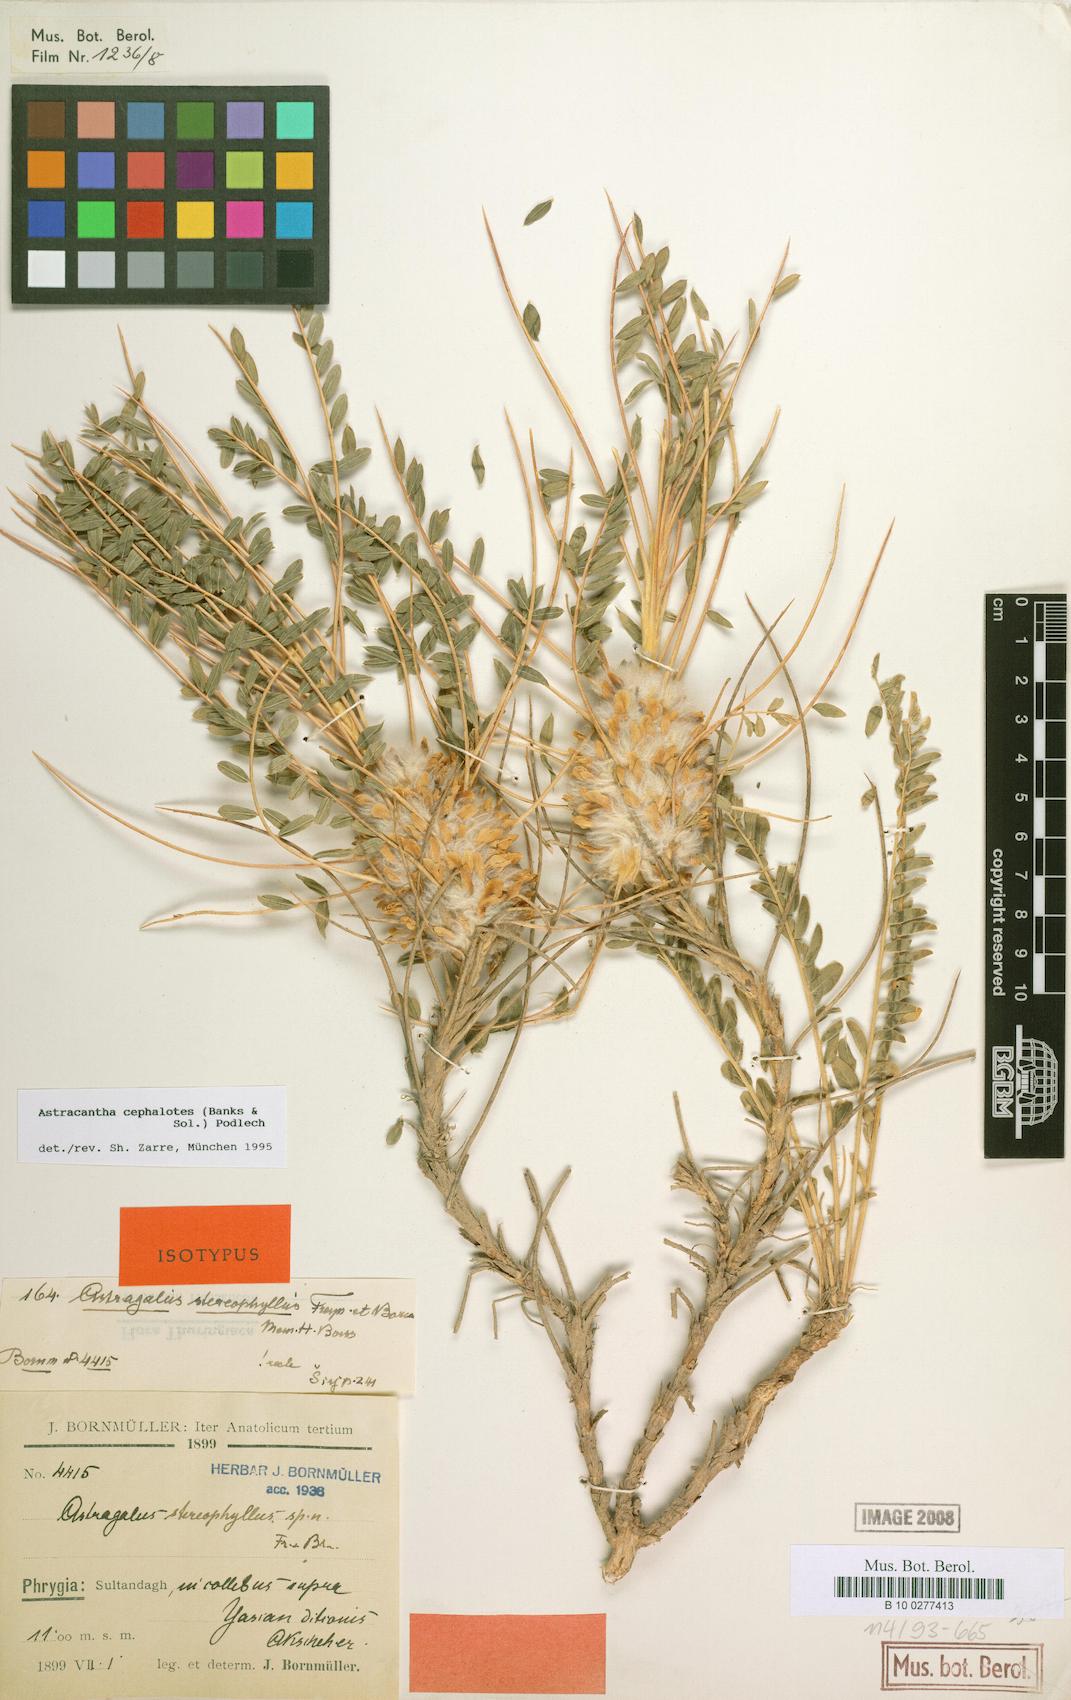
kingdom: Plantae
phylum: Tracheophyta
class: Magnoliopsida
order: Fabales
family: Fabaceae
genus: Astragalus
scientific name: Astragalus cephalotes
